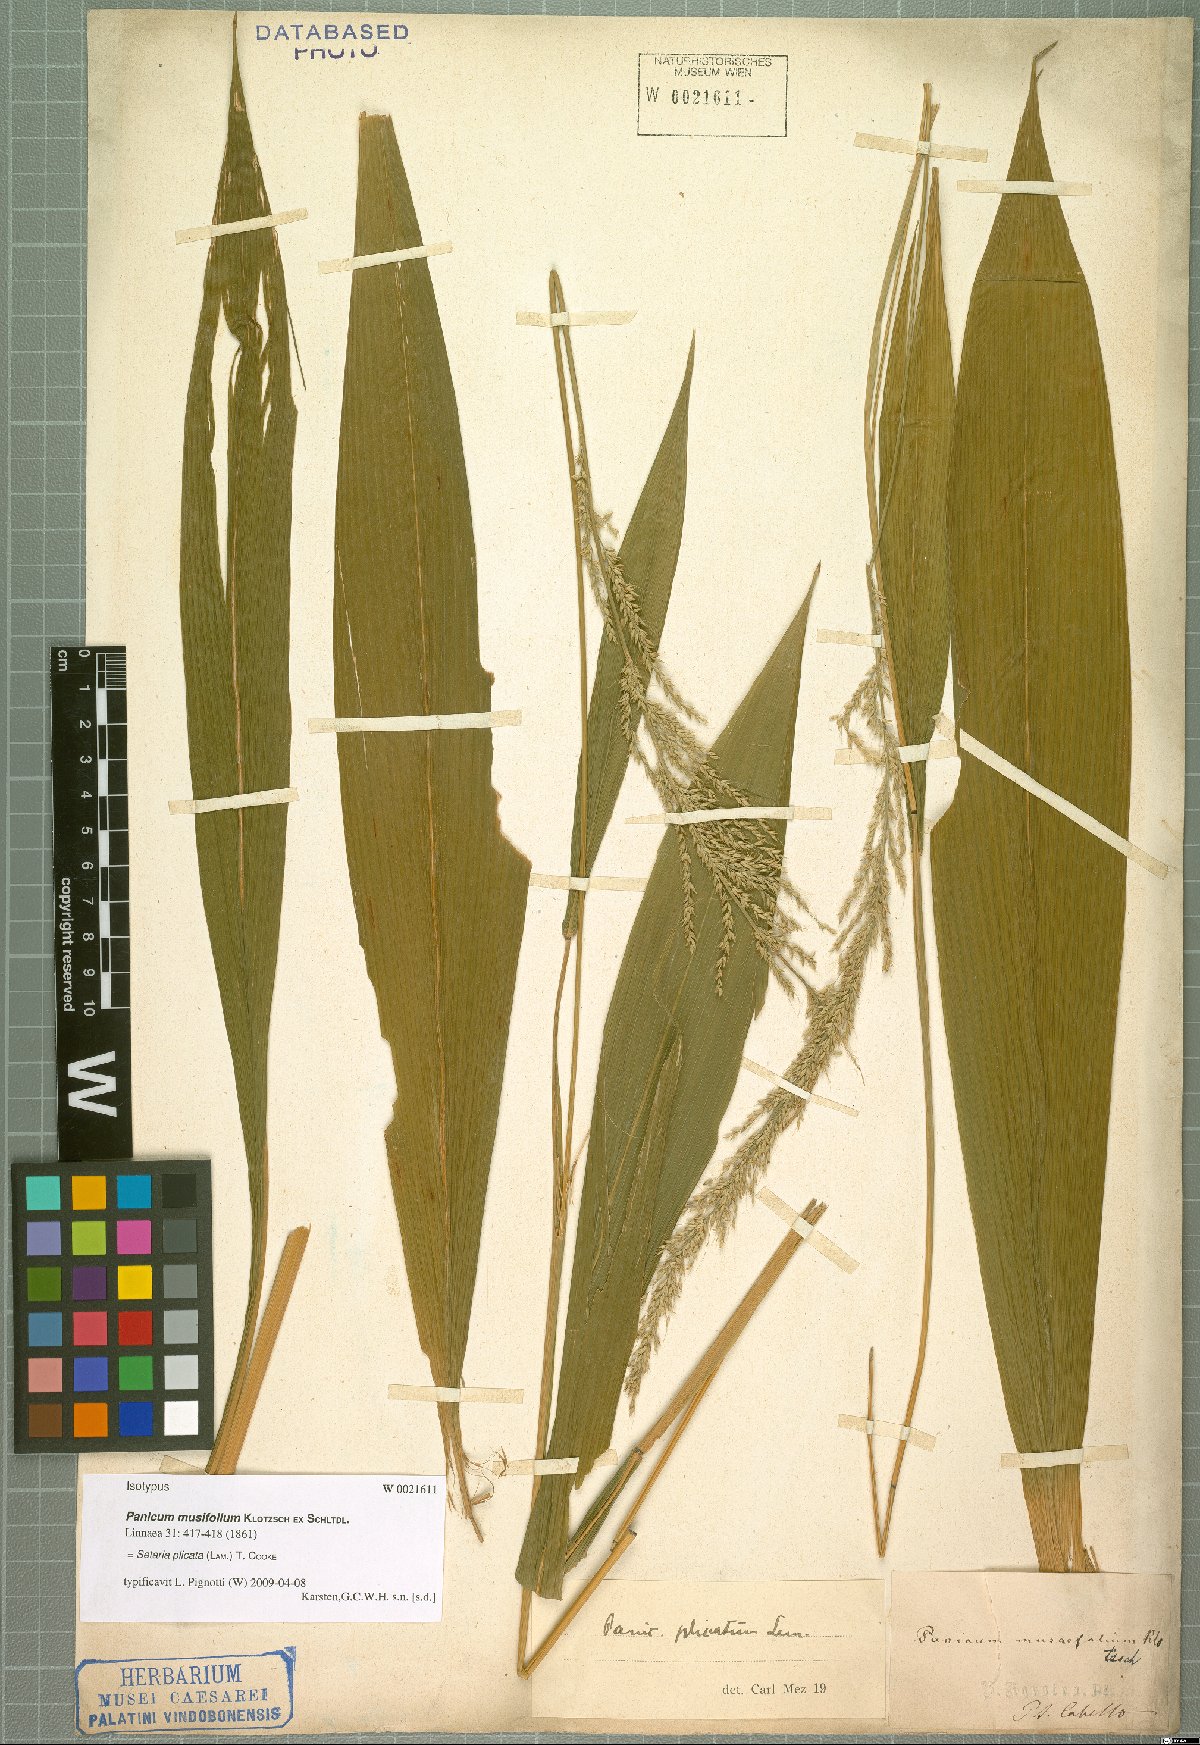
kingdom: Plantae
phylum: Tracheophyta
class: Liliopsida
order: Poales
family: Poaceae
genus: Setaria
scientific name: Setaria plicata
